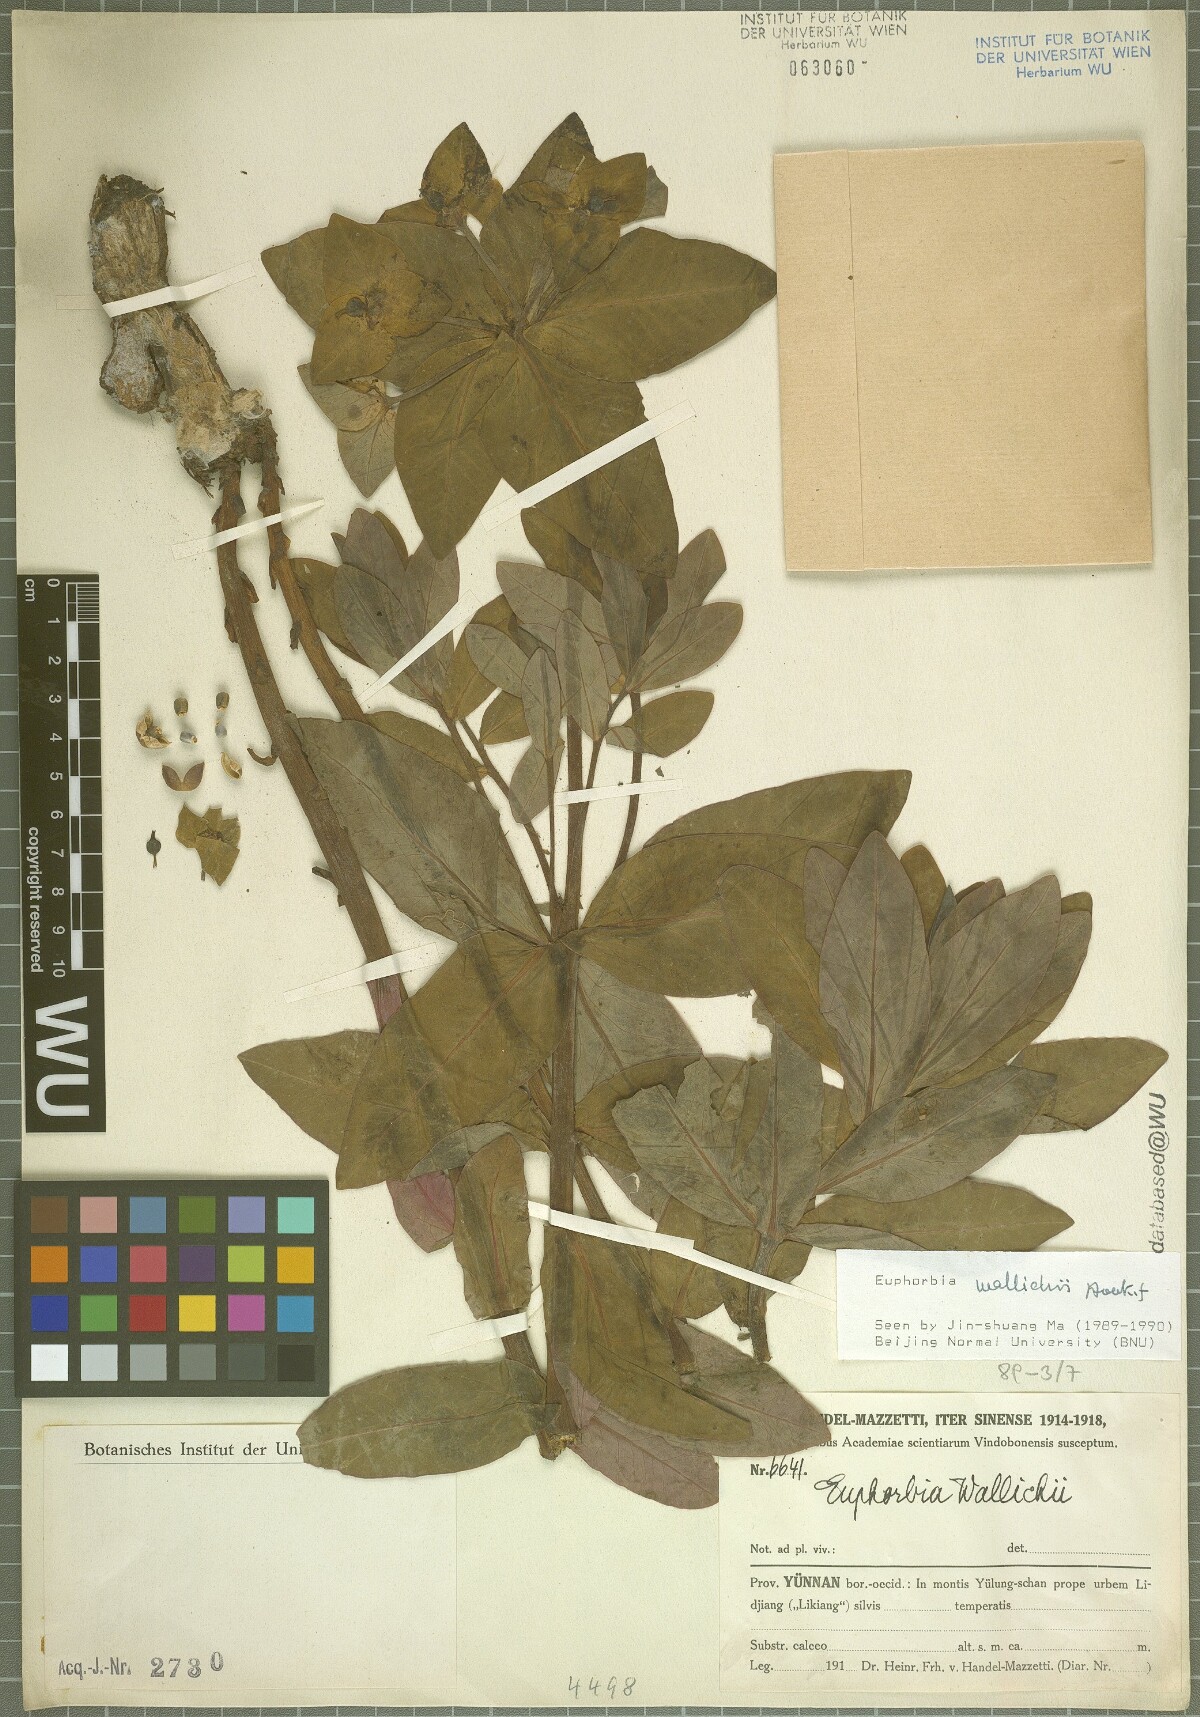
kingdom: Plantae
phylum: Tracheophyta
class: Magnoliopsida
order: Malpighiales
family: Euphorbiaceae
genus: Euphorbia
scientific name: Euphorbia wallichii
